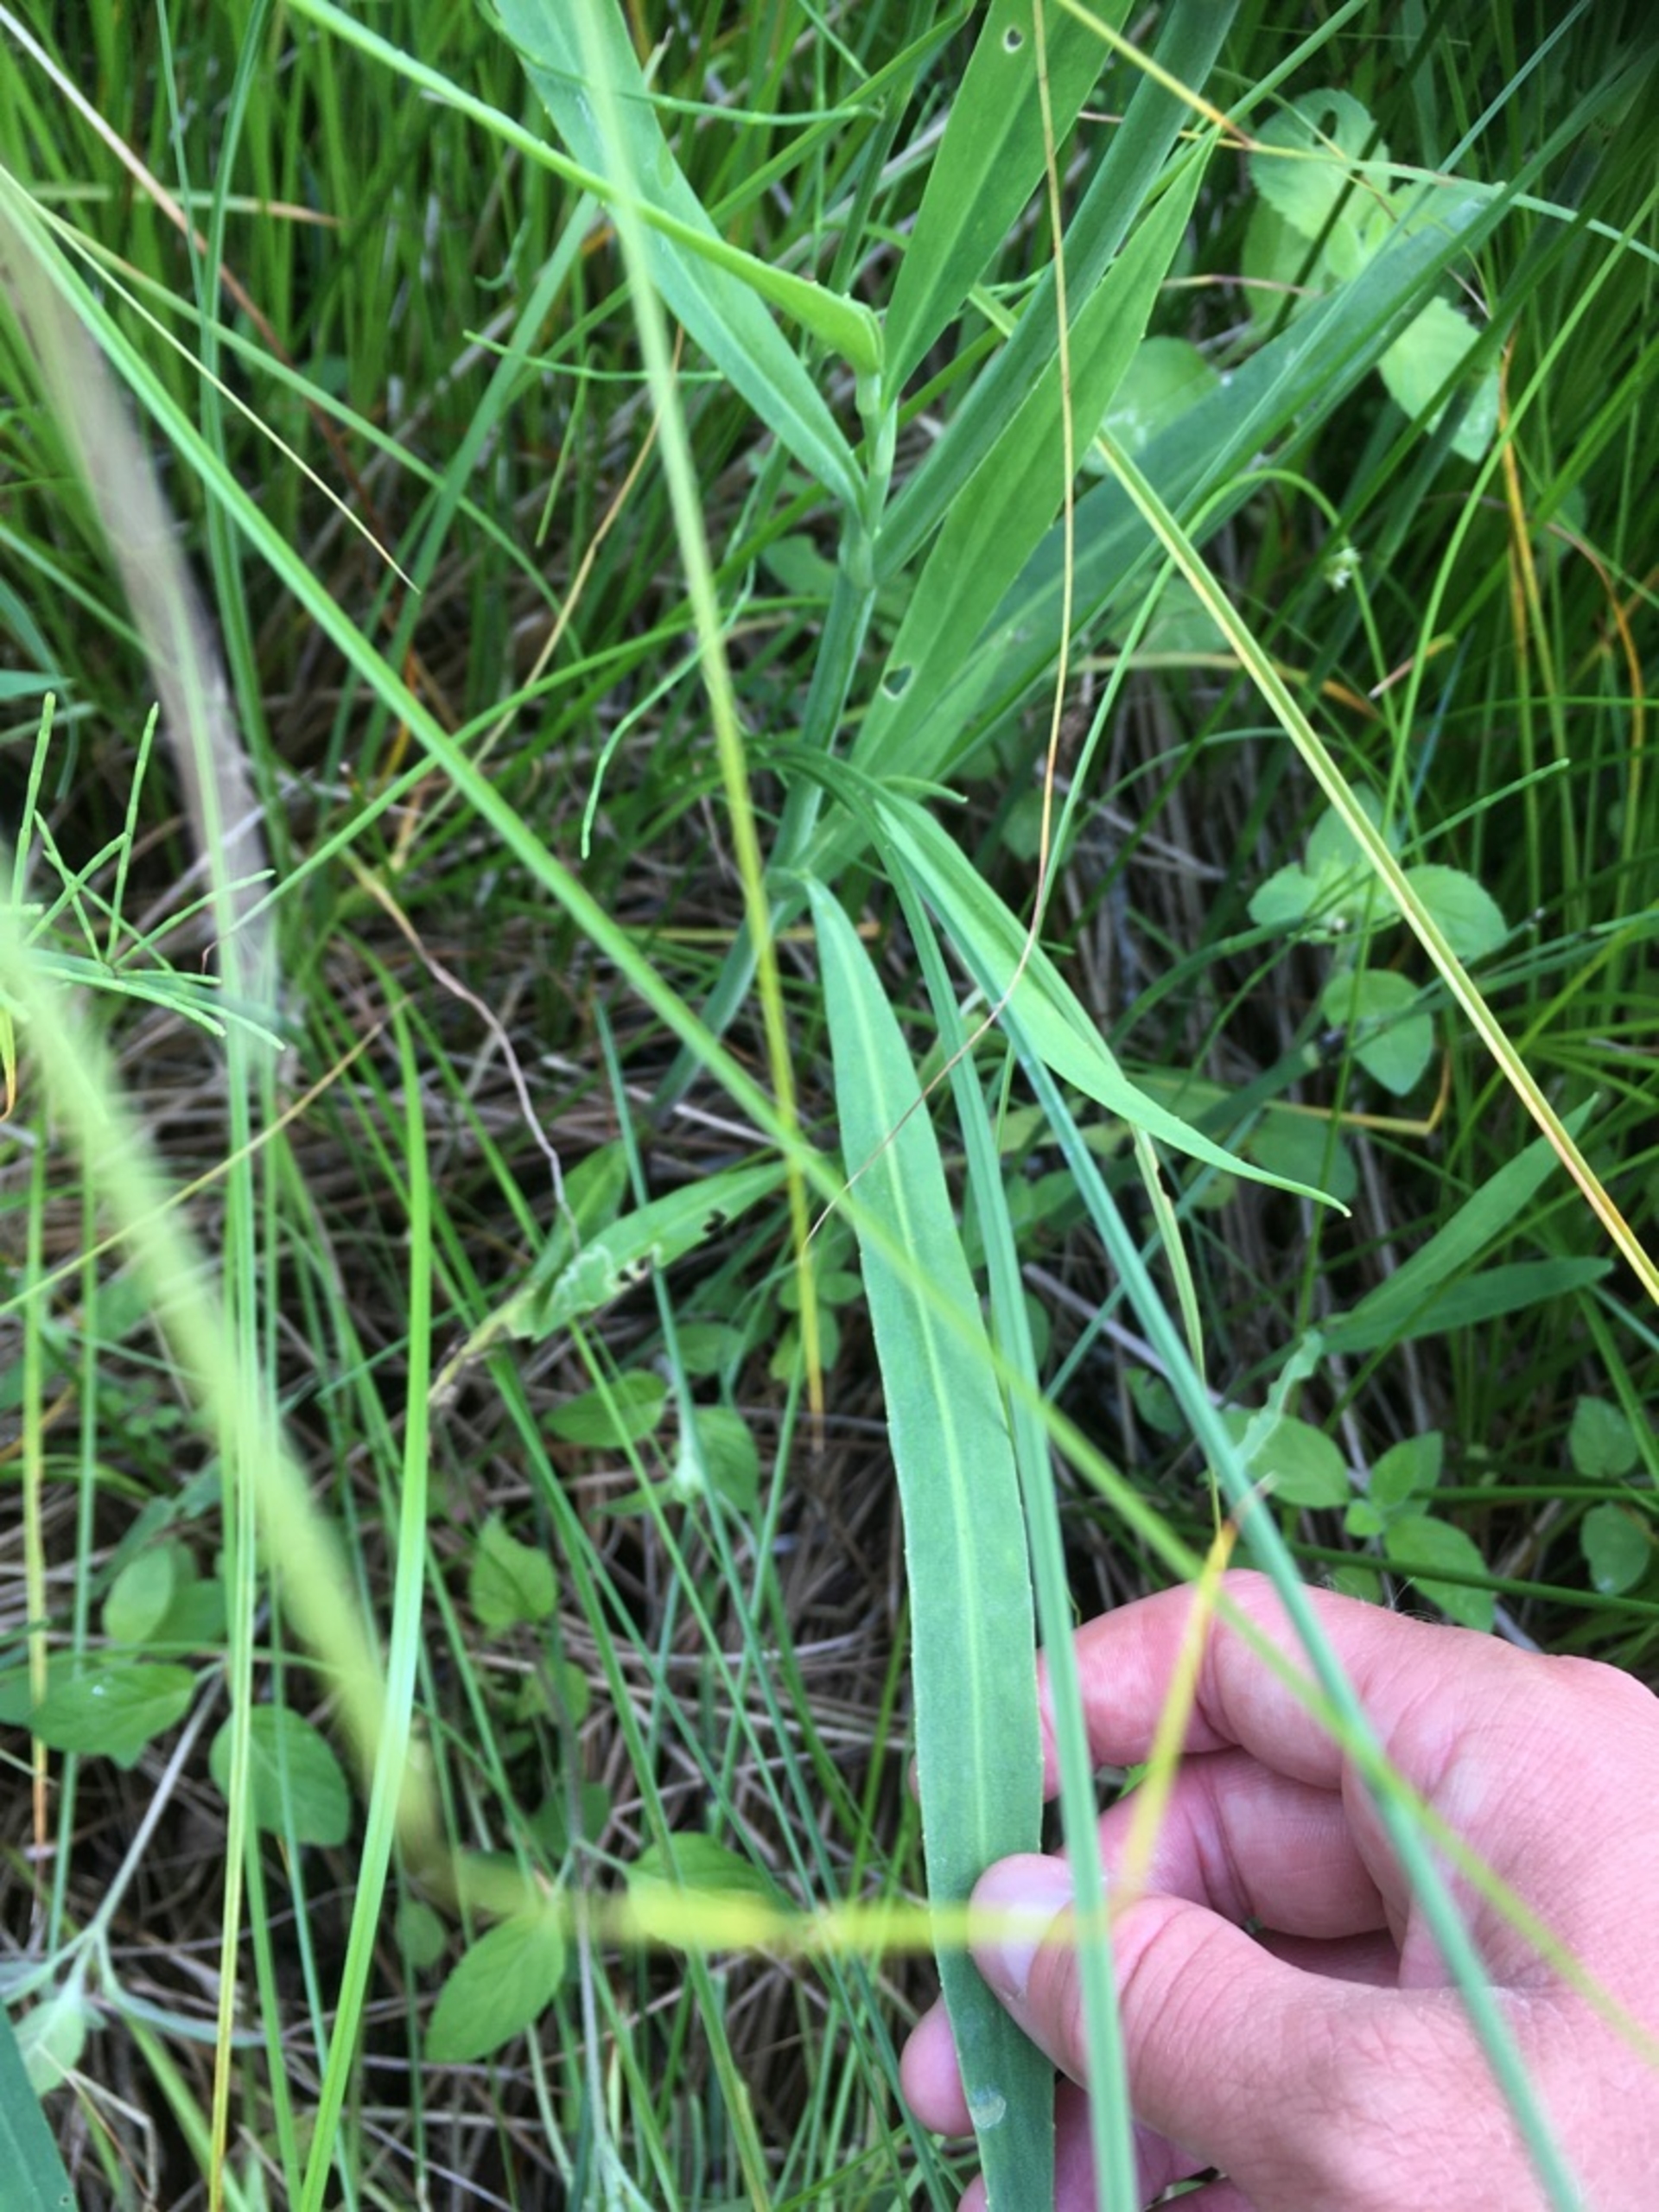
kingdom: Plantae
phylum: Tracheophyta
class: Magnoliopsida
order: Ranunculales
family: Ranunculaceae
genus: Ranunculus
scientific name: Ranunculus lingua
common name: Langbladet ranunkel
